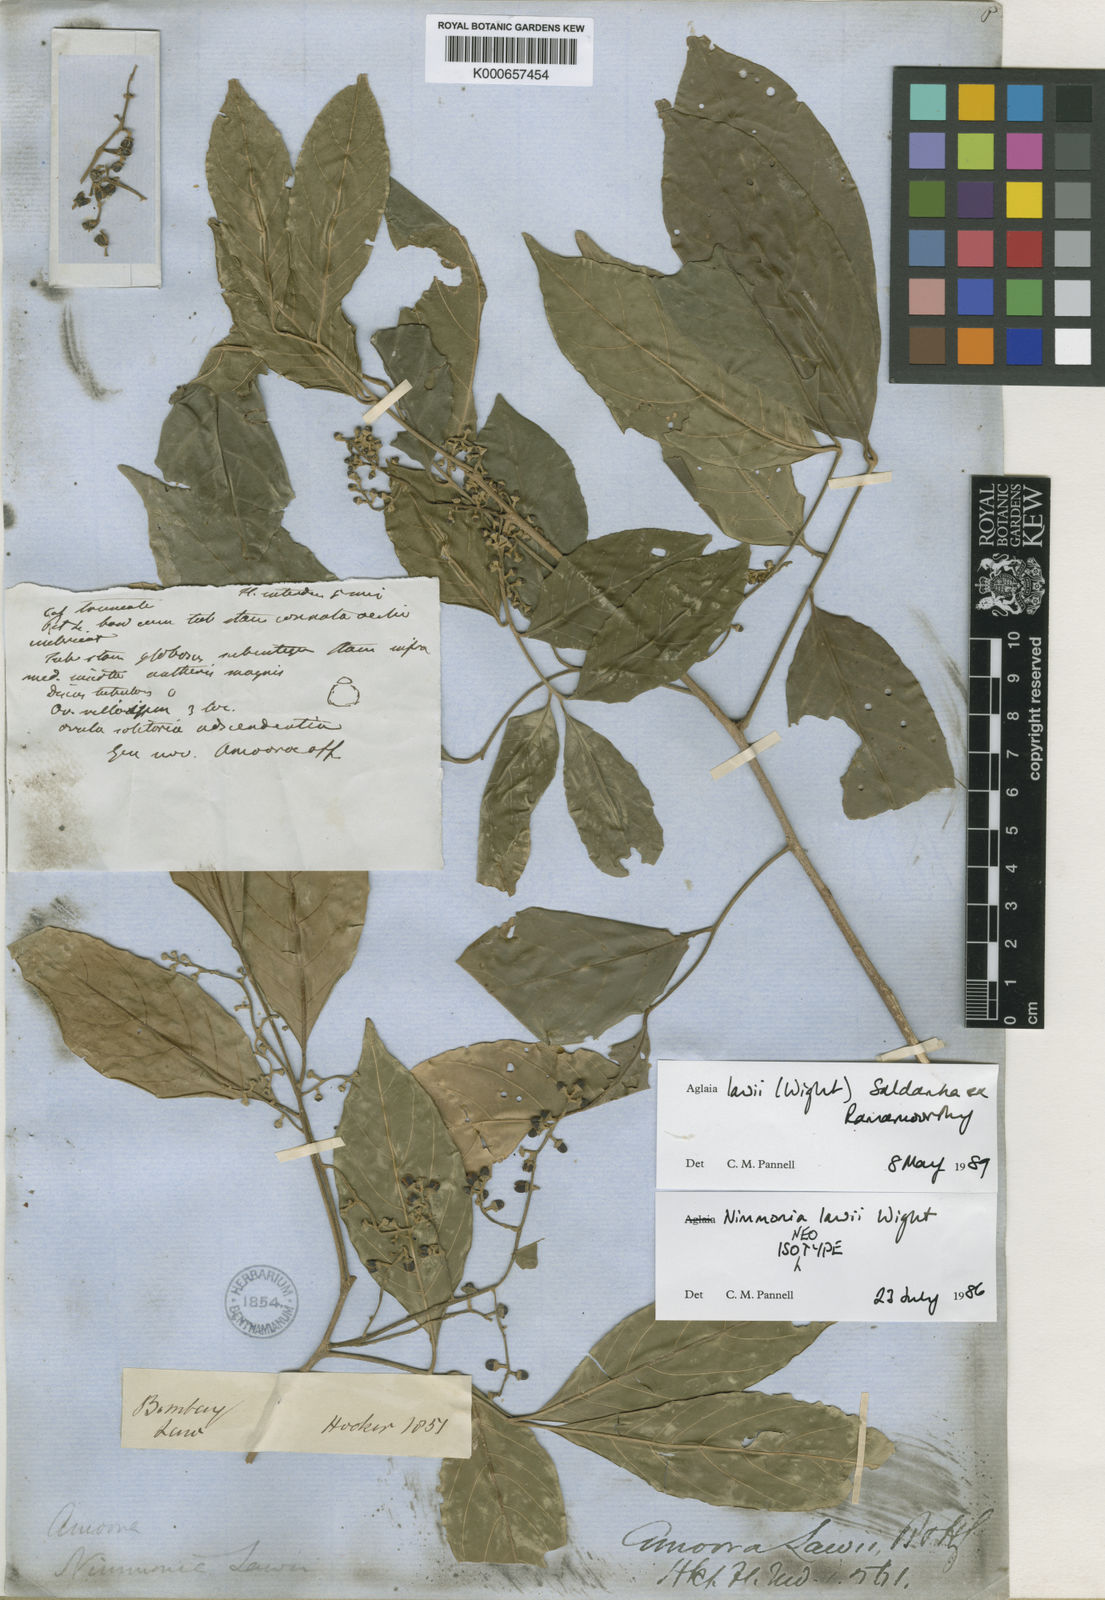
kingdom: Plantae
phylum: Tracheophyta
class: Magnoliopsida
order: Sapindales
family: Meliaceae
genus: Aglaia
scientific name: Aglaia
